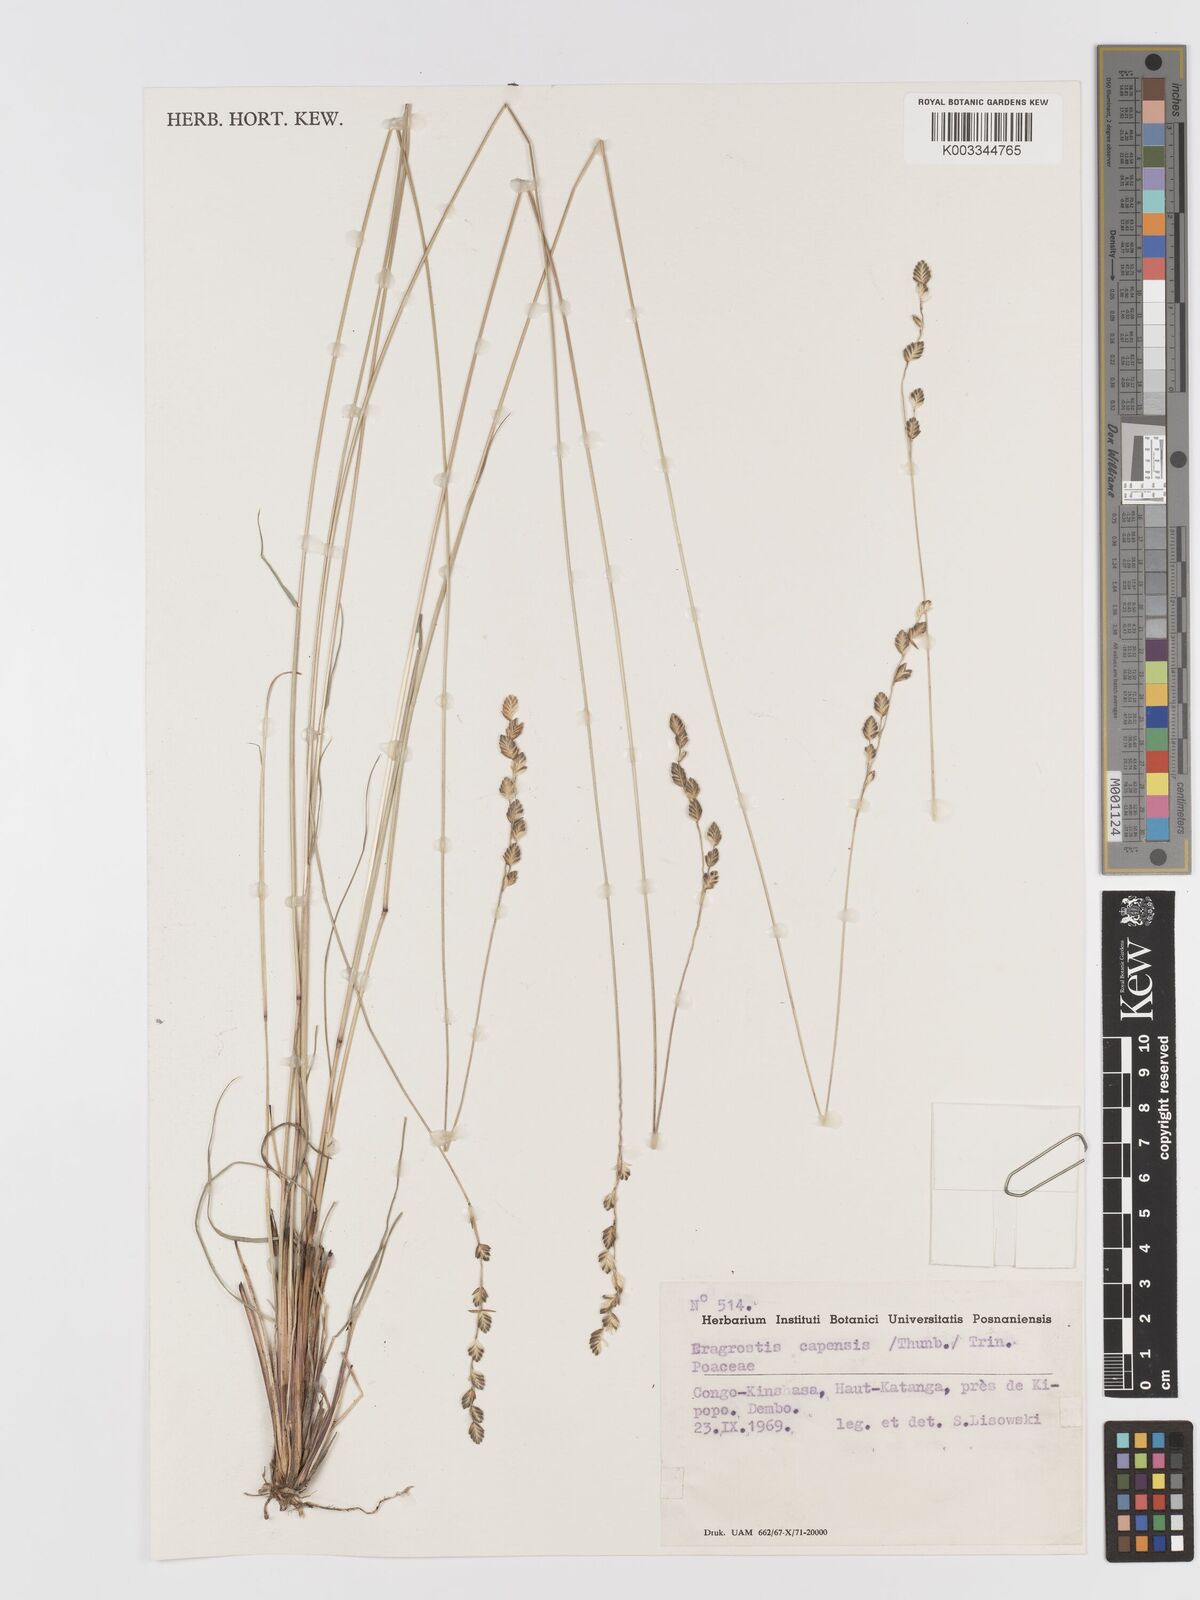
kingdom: Plantae
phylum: Tracheophyta
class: Liliopsida
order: Poales
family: Poaceae
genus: Eragrostis
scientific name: Eragrostis capensis
